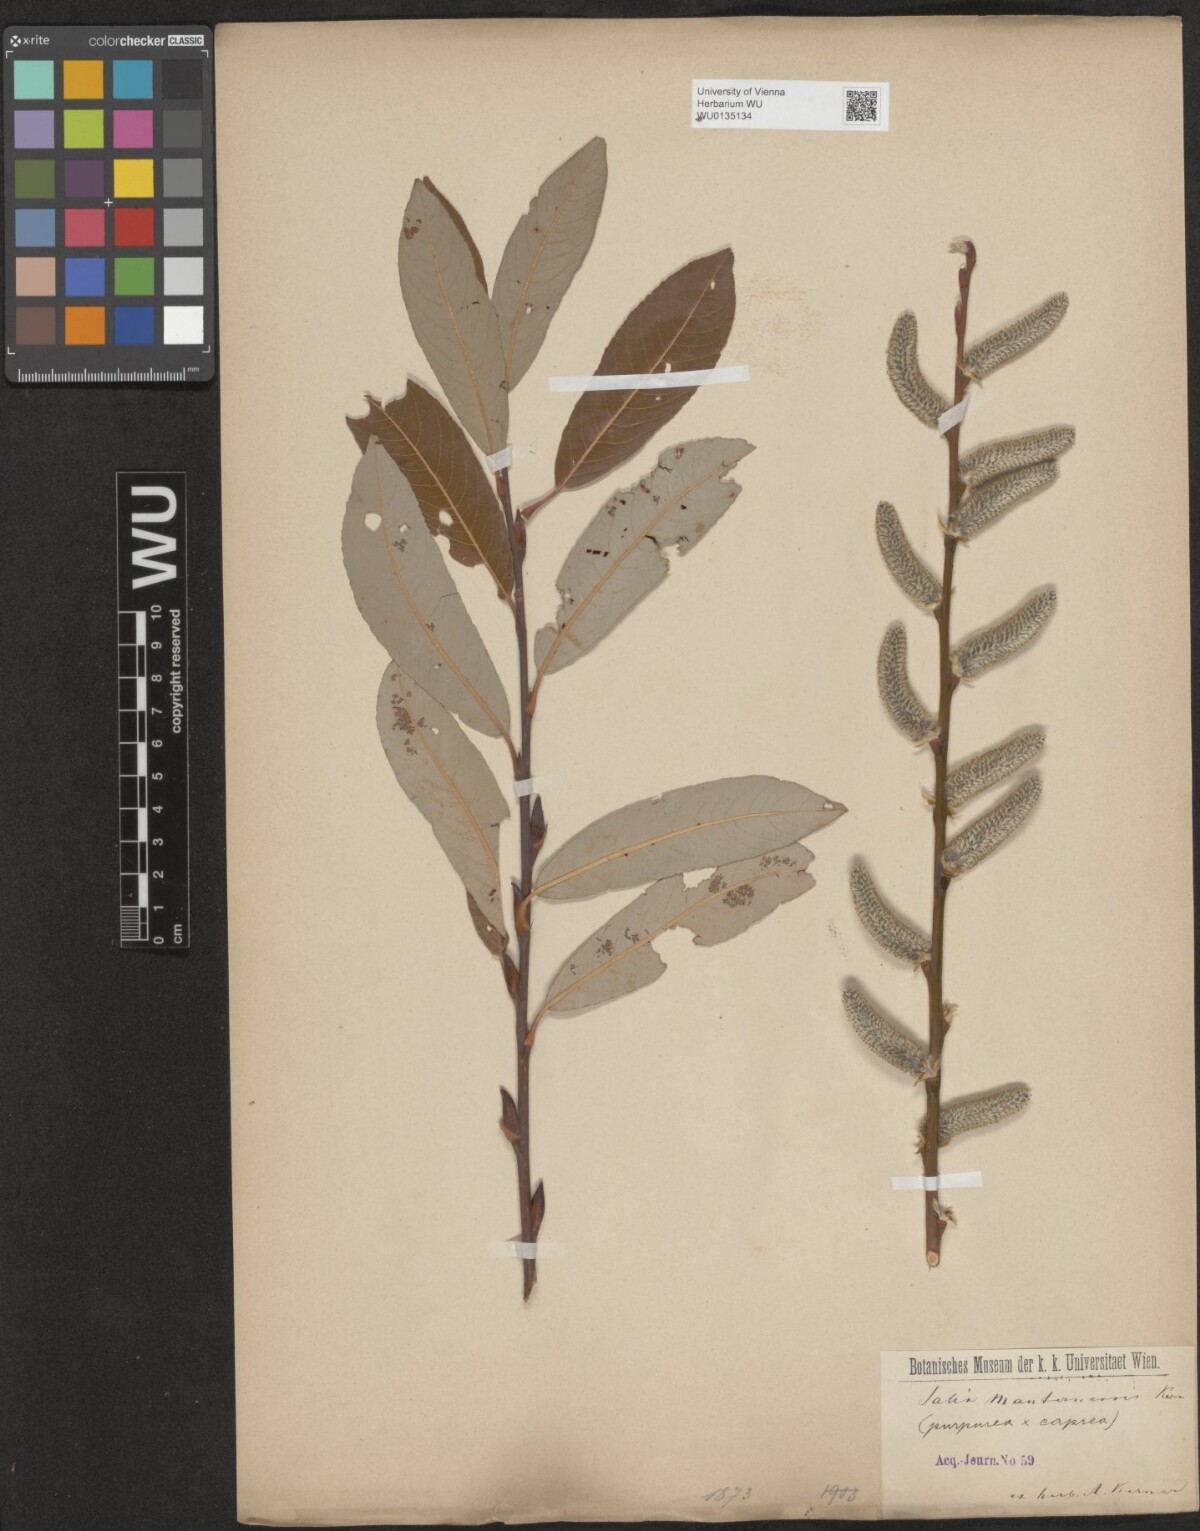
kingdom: Plantae
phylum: Tracheophyta
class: Magnoliopsida
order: Malpighiales
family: Salicaceae
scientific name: Salicaceae
